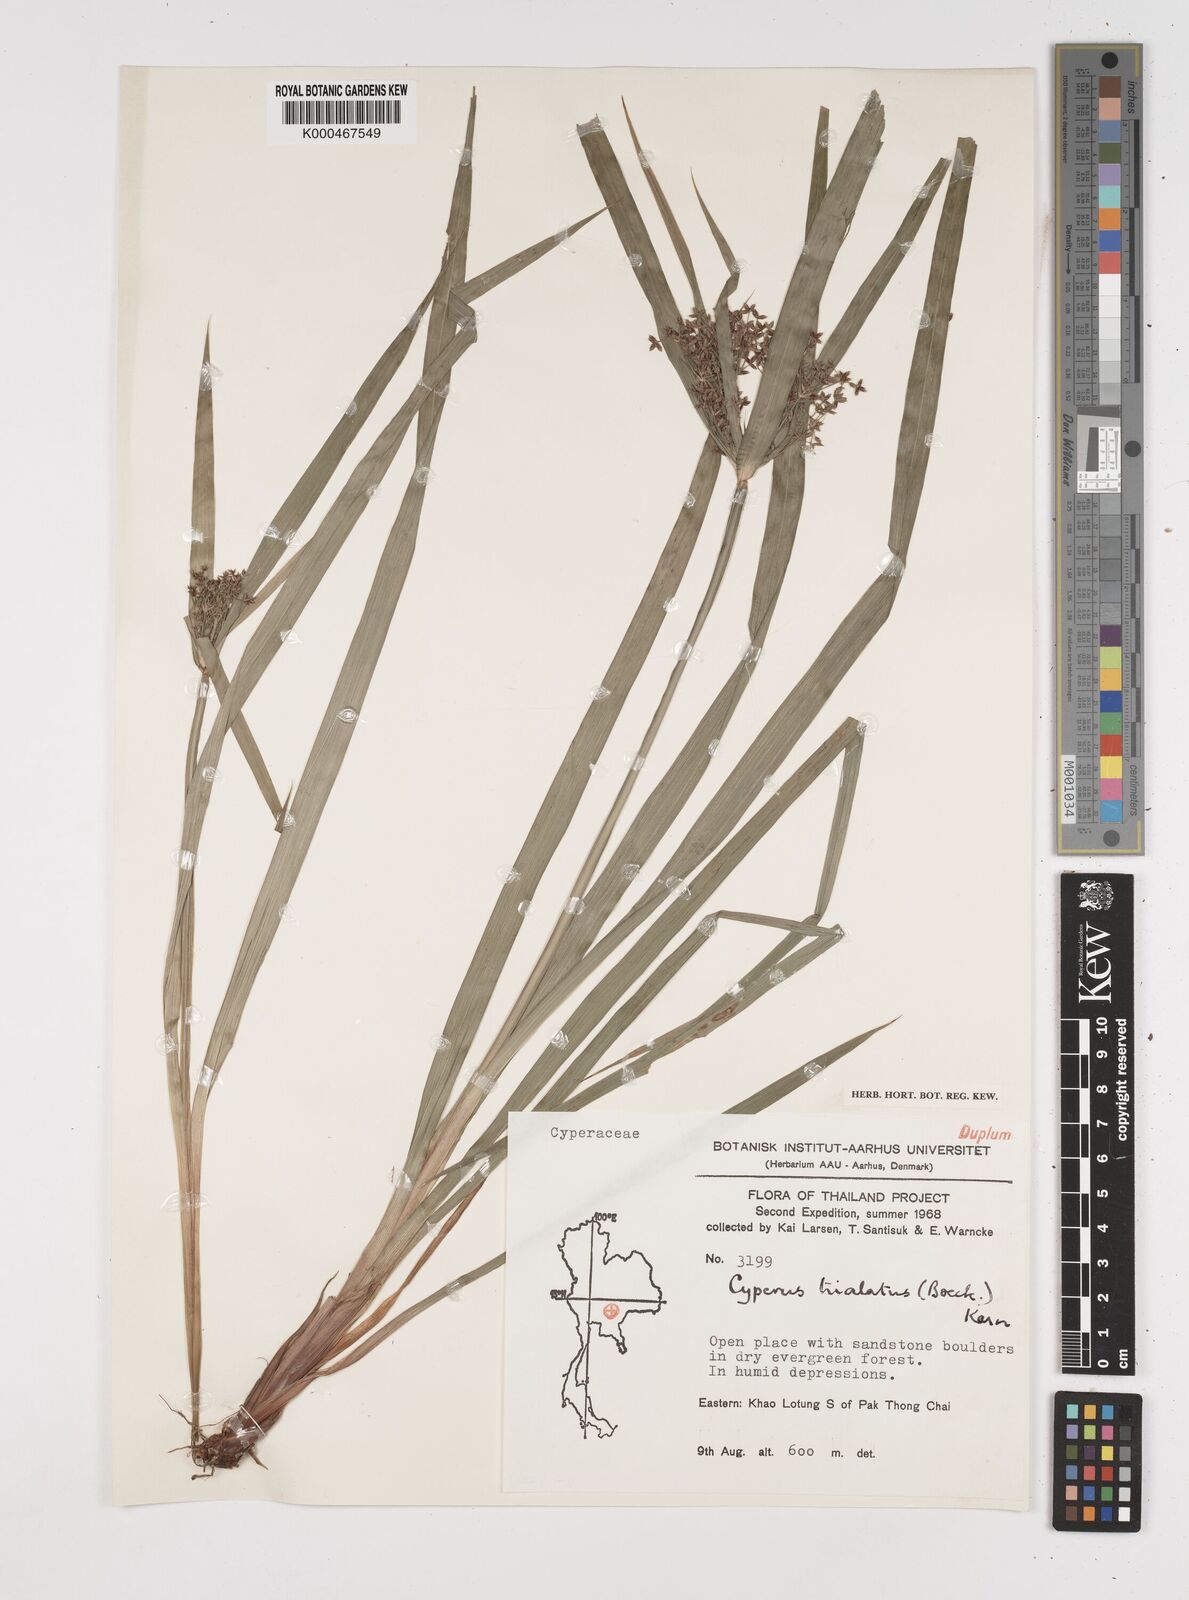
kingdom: Plantae
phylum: Tracheophyta
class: Liliopsida
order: Poales
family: Cyperaceae
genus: Cyperus
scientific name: Cyperus trialatus
